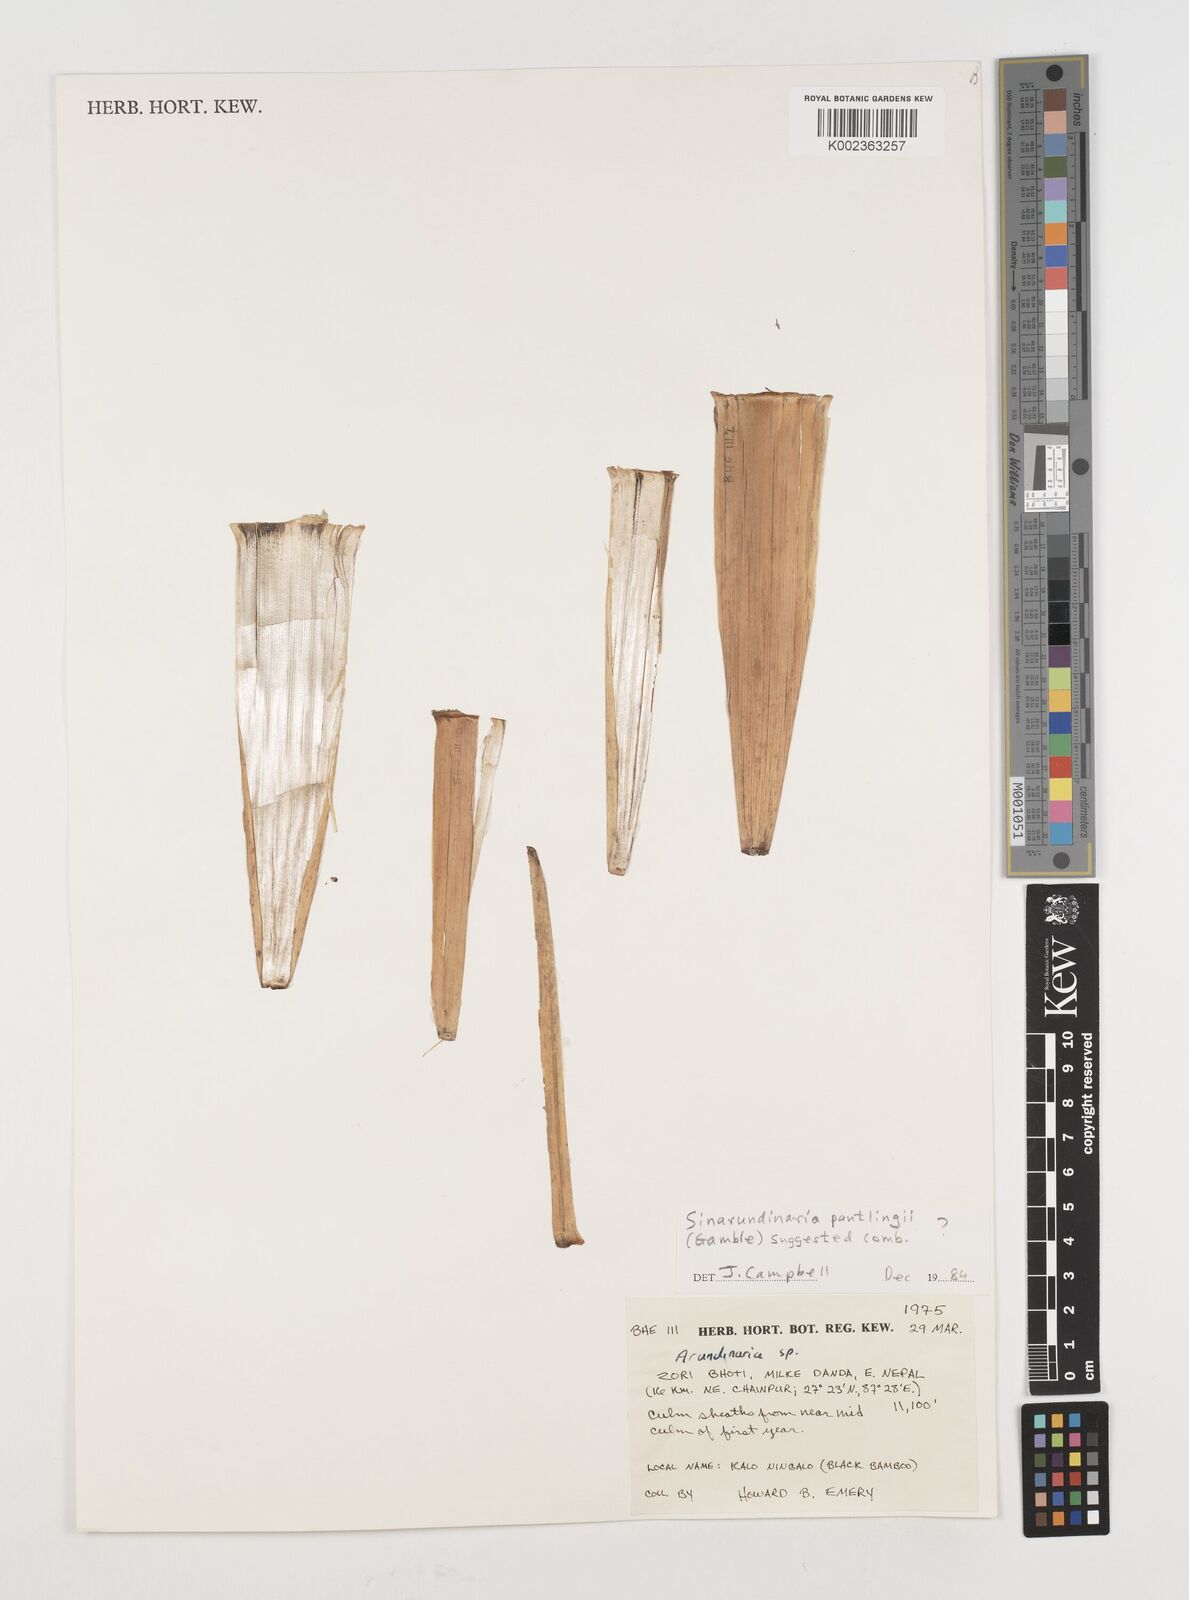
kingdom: Plantae
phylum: Tracheophyta
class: Liliopsida
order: Poales
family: Poaceae
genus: Fargesia
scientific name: Fargesia
